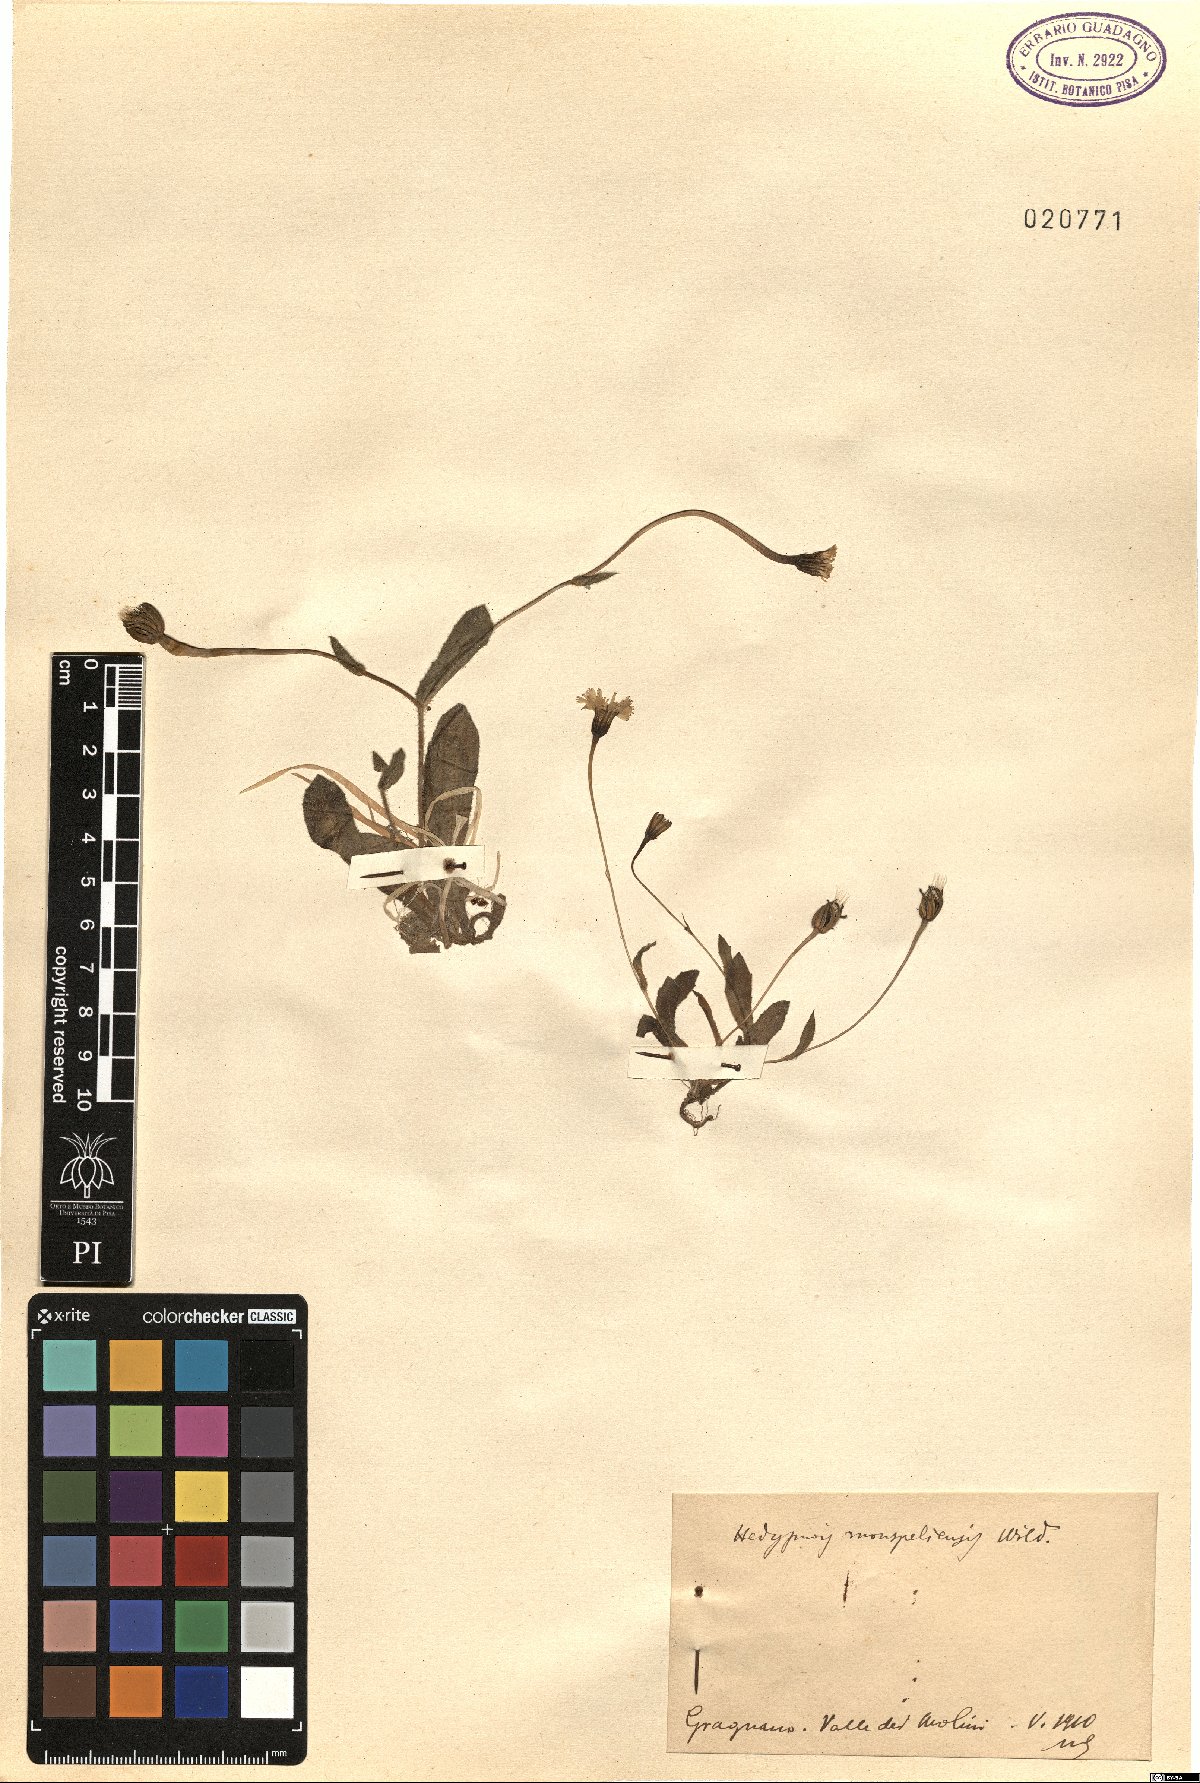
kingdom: Plantae
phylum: Tracheophyta
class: Magnoliopsida
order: Asterales
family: Asteraceae
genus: Hedypnois
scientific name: Hedypnois rhagadioloides
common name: Cretan weed
